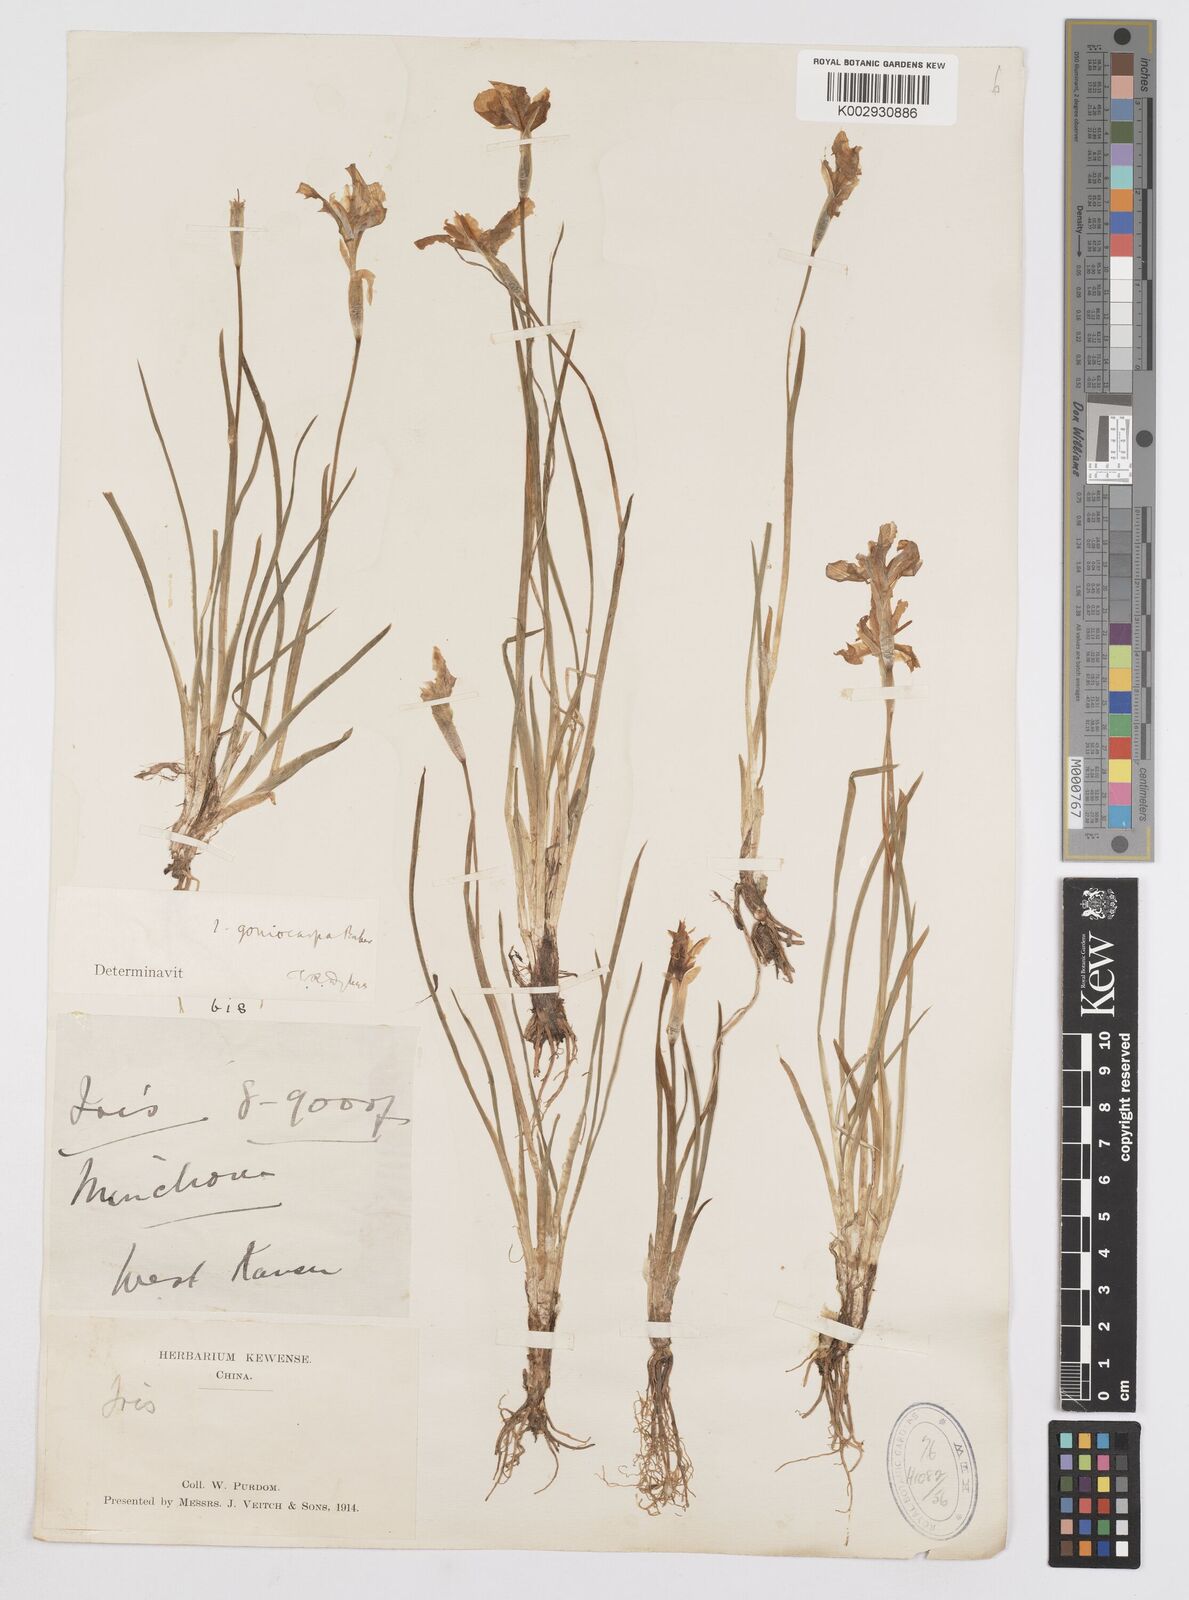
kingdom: Plantae
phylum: Tracheophyta
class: Liliopsida
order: Asparagales
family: Iridaceae
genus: Iris
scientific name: Iris goniocarpa
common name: Angular-fruit iris
